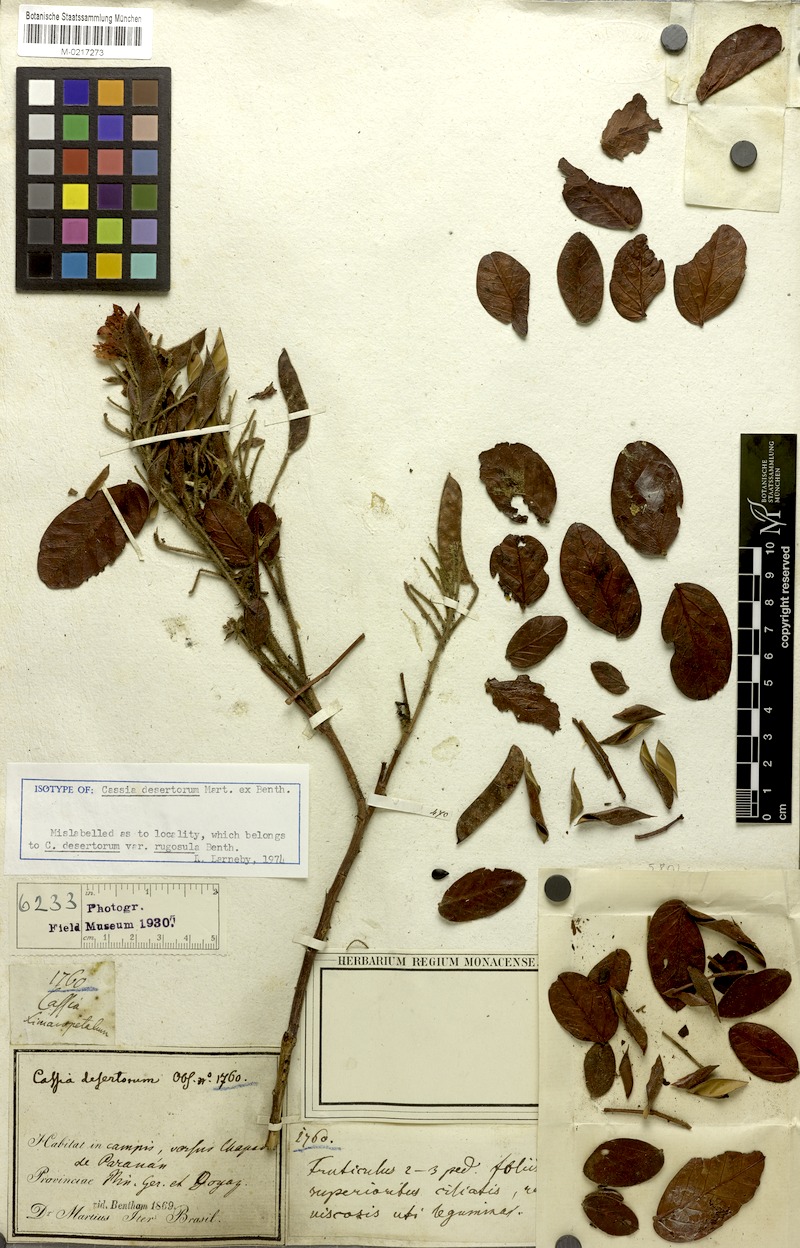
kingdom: Plantae
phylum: Tracheophyta
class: Magnoliopsida
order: Fabales
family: Fabaceae
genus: Chamaecrista
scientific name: Chamaecrista desertorum
